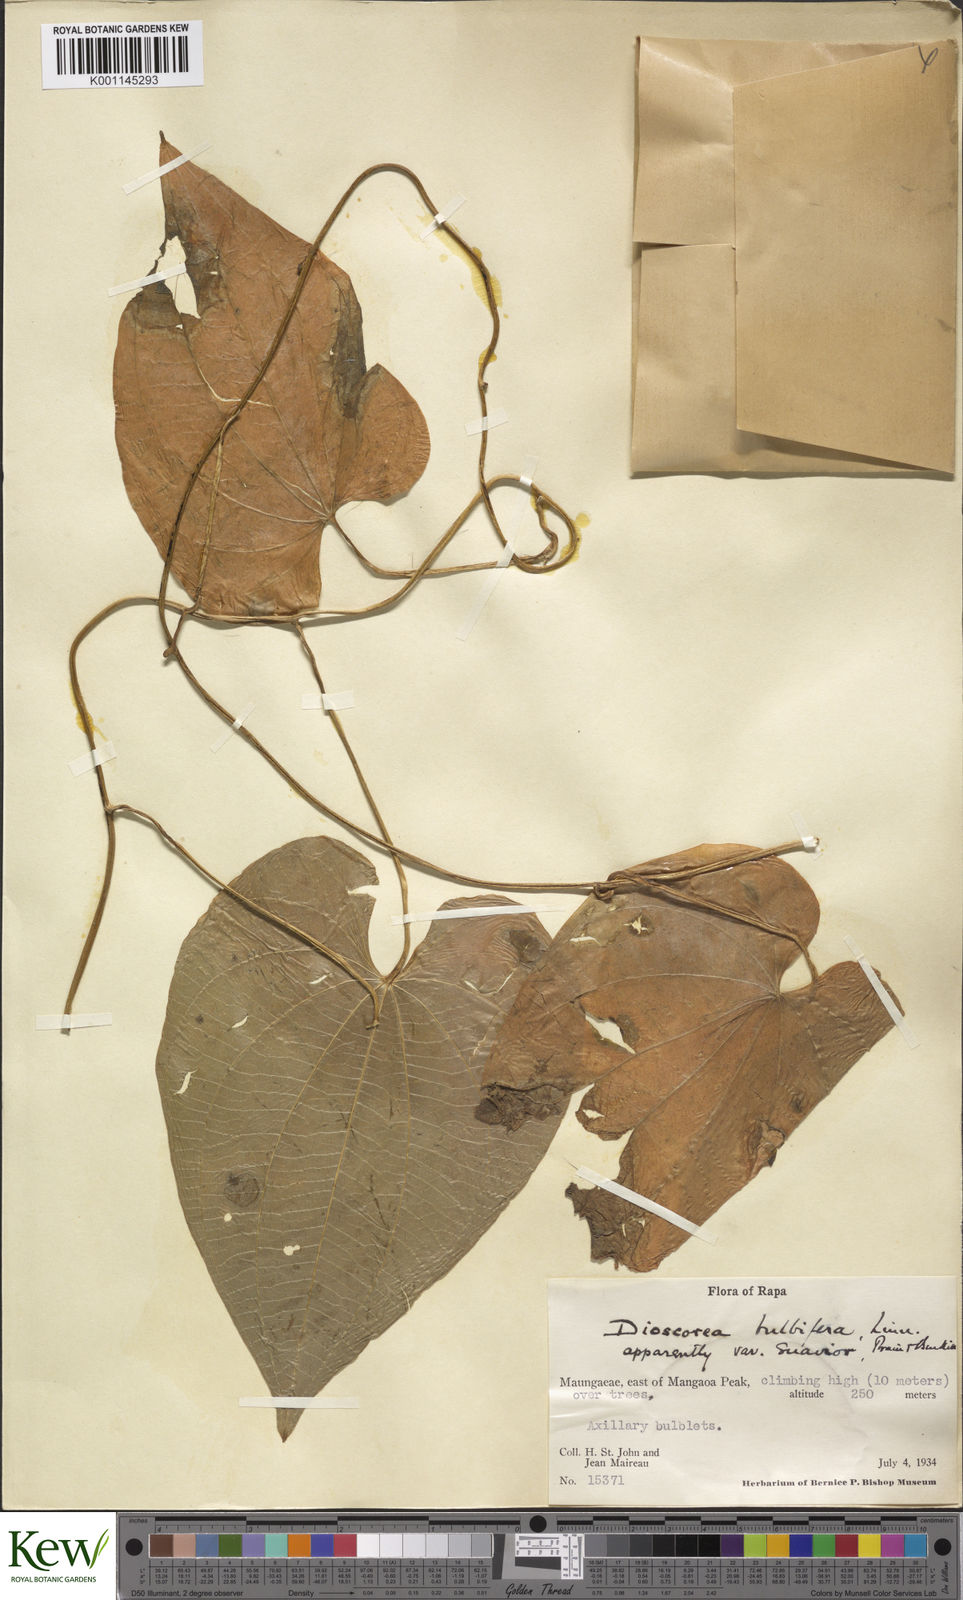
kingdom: Plantae
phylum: Tracheophyta
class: Liliopsida
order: Dioscoreales
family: Dioscoreaceae
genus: Dioscorea
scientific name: Dioscorea bulbifera
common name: Air yam
